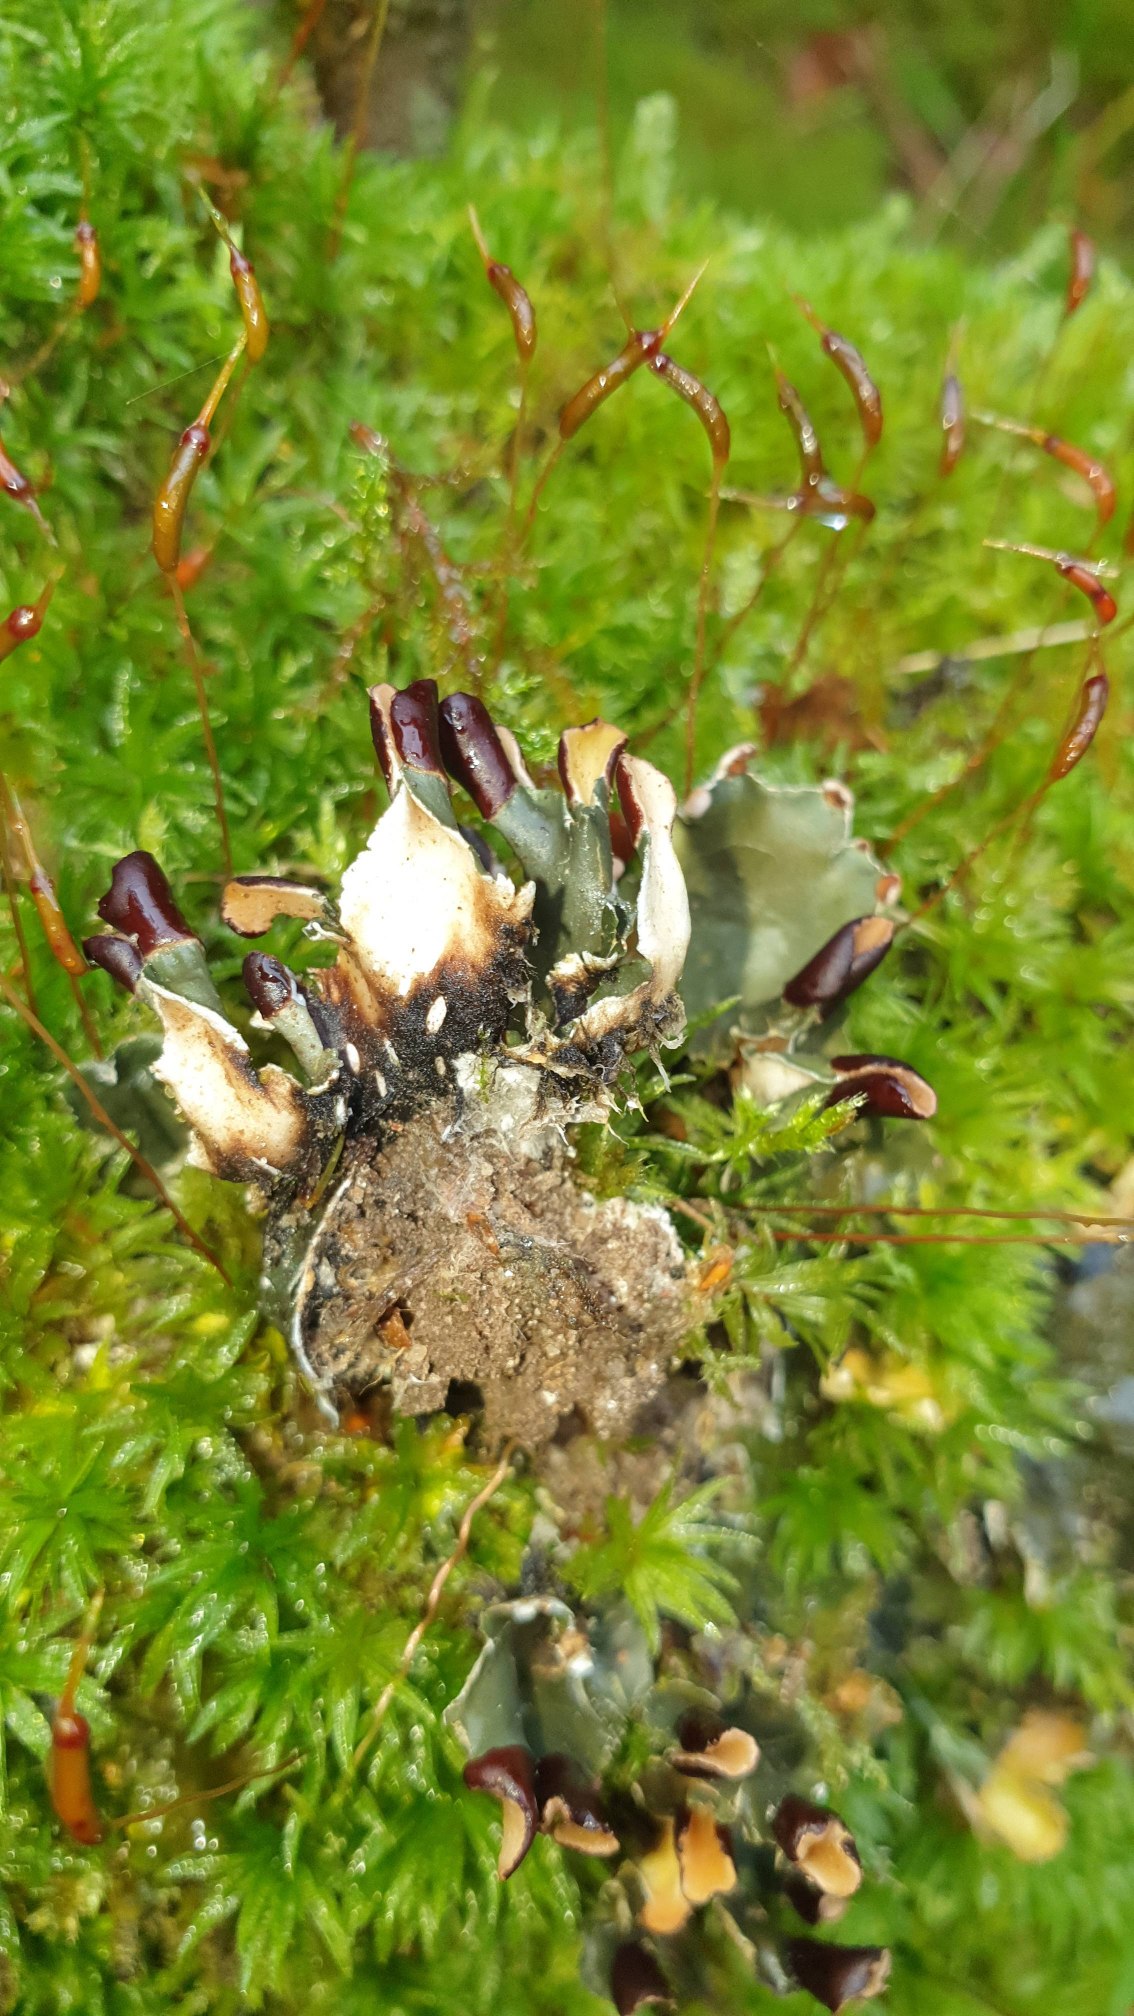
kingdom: Fungi
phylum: Ascomycota
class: Lecanoromycetes
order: Peltigerales
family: Peltigeraceae
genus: Peltigera
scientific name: Peltigera neckeri
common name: Glinsende skjoldlav
